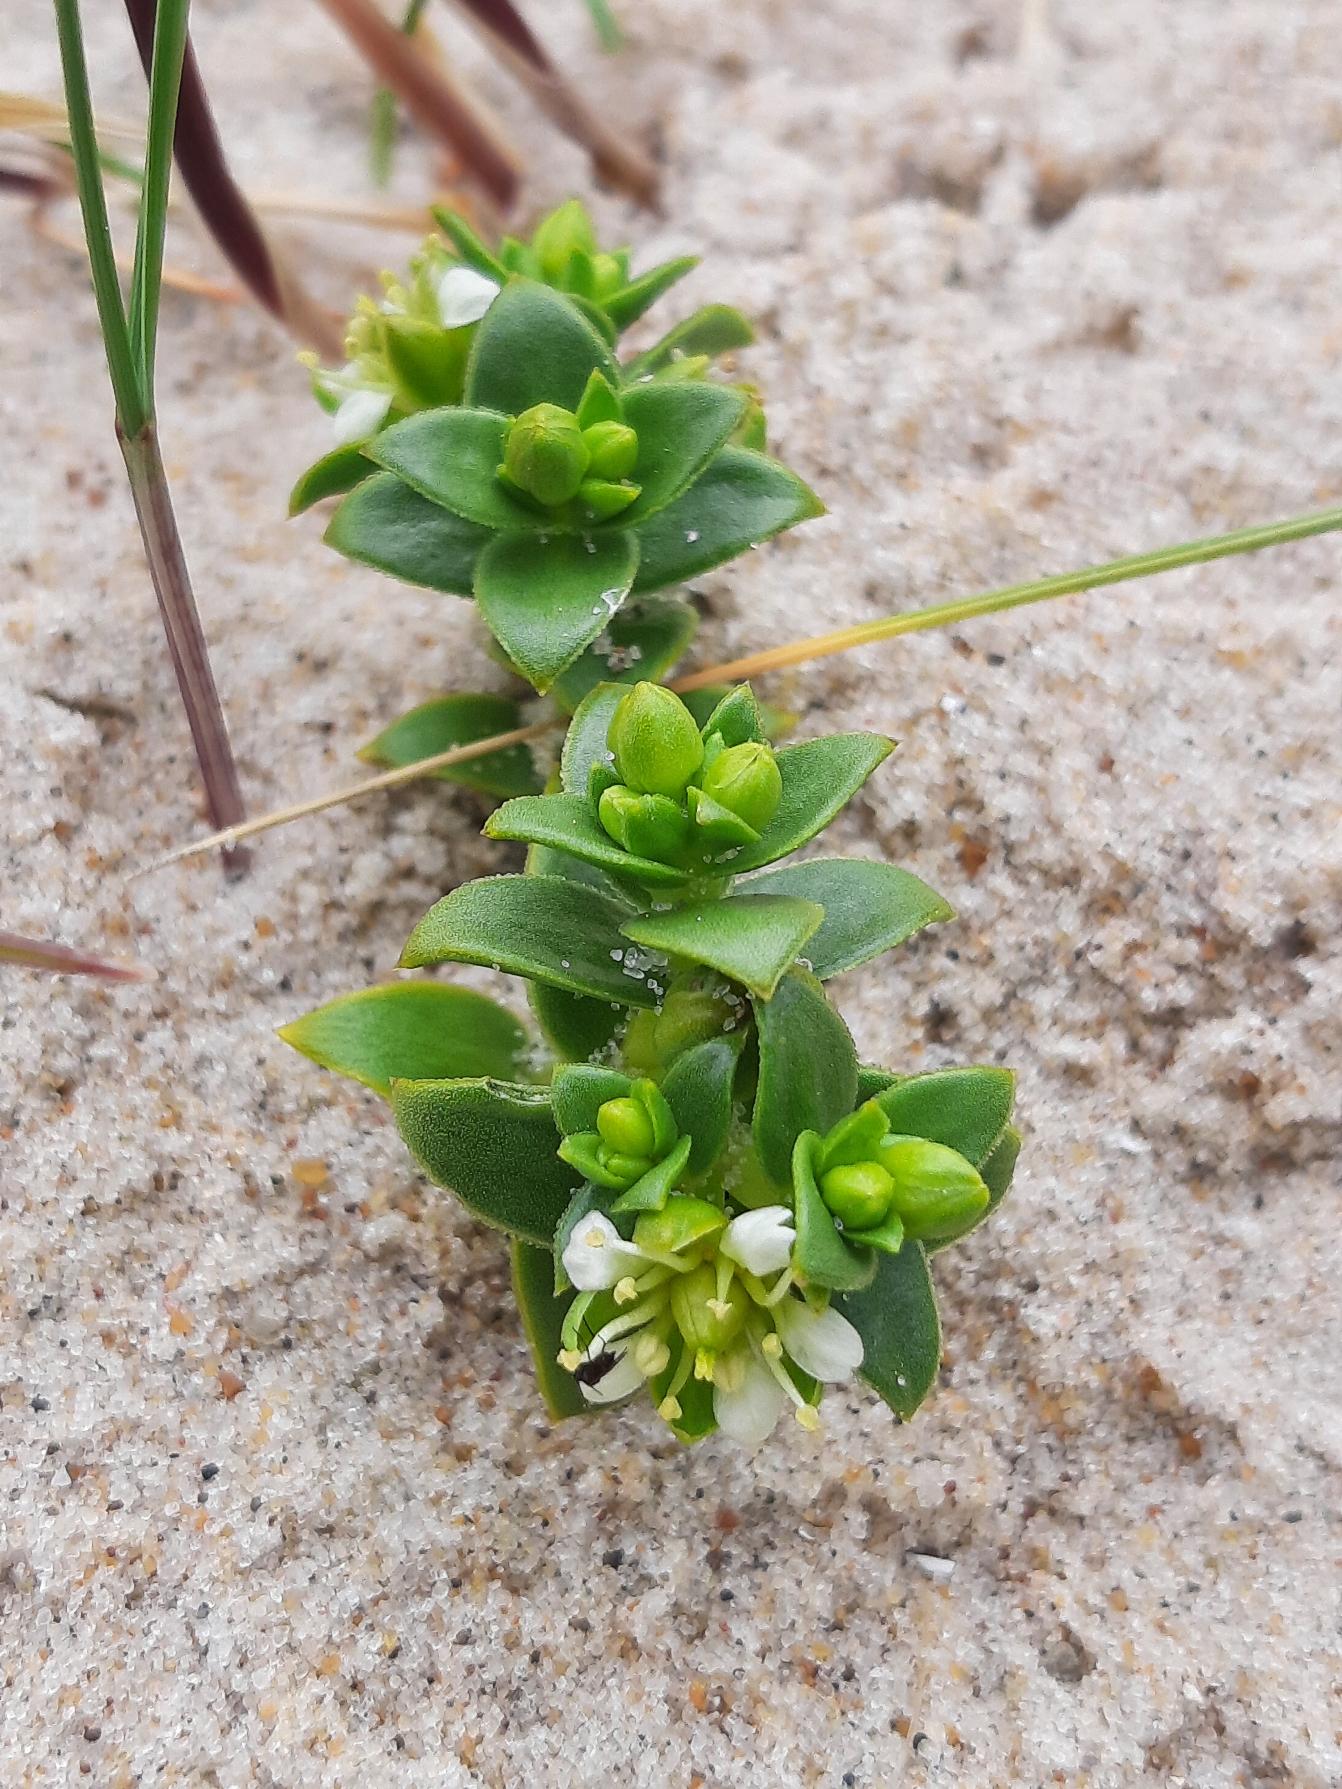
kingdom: Plantae
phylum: Tracheophyta
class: Magnoliopsida
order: Caryophyllales
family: Caryophyllaceae
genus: Honckenya
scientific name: Honckenya peploides
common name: Strandarve
